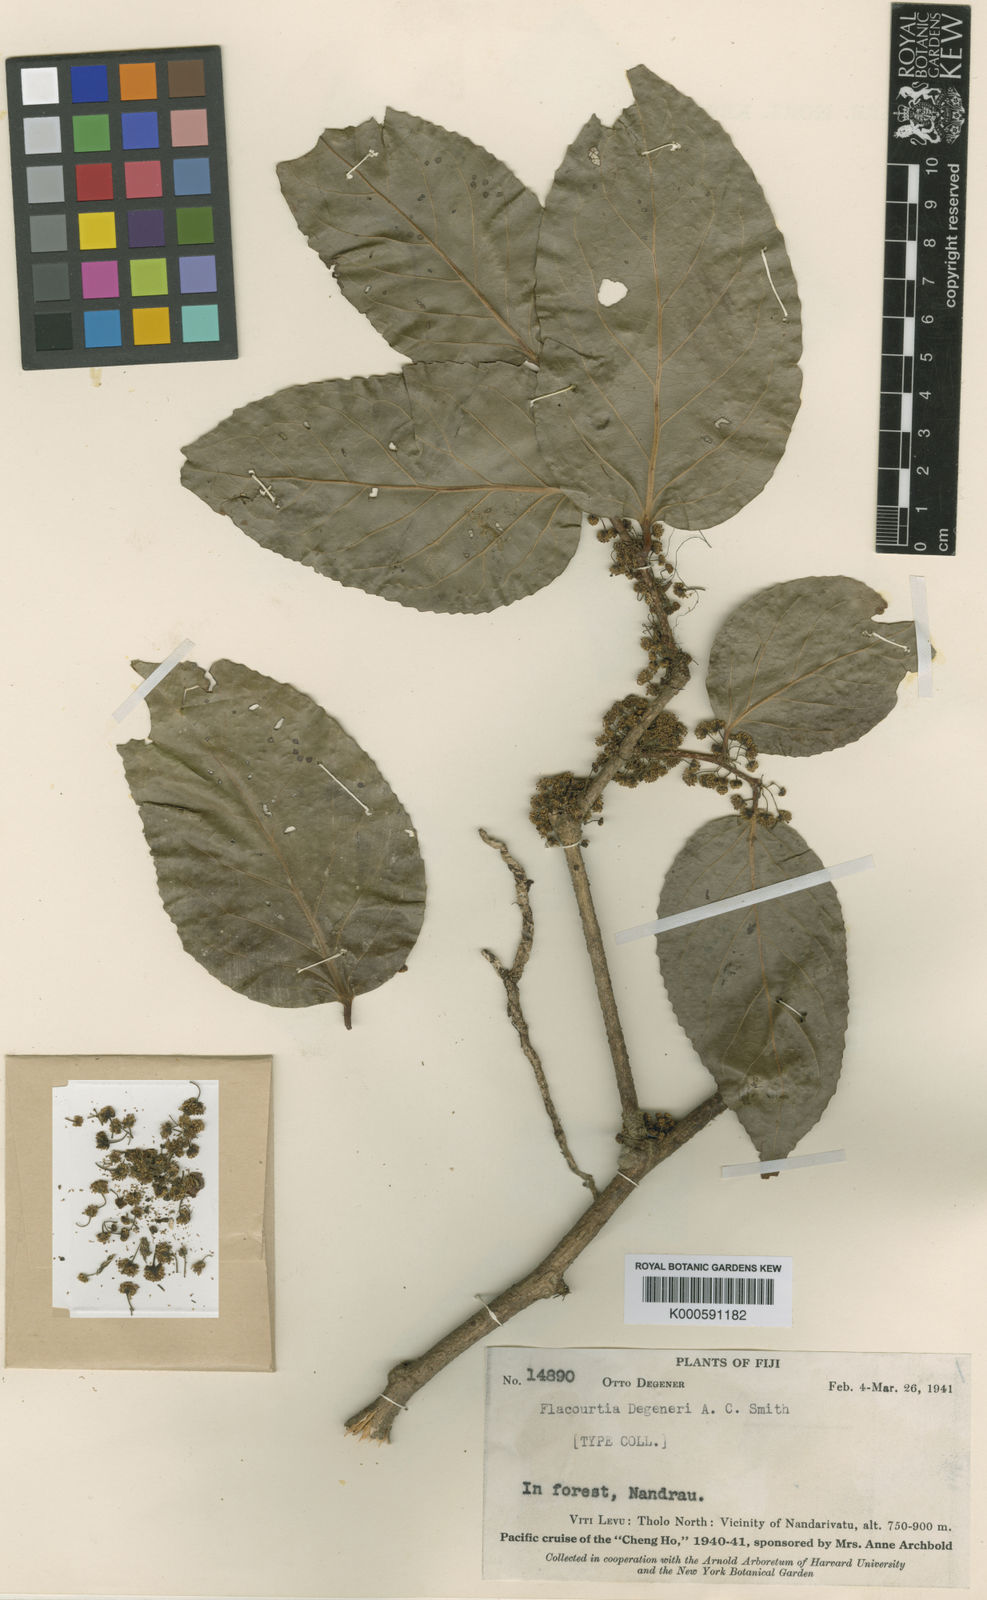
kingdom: Plantae
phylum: Tracheophyta
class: Magnoliopsida
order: Malpighiales
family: Salicaceae
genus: Flacourtia
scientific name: Flacourtia degeneri
